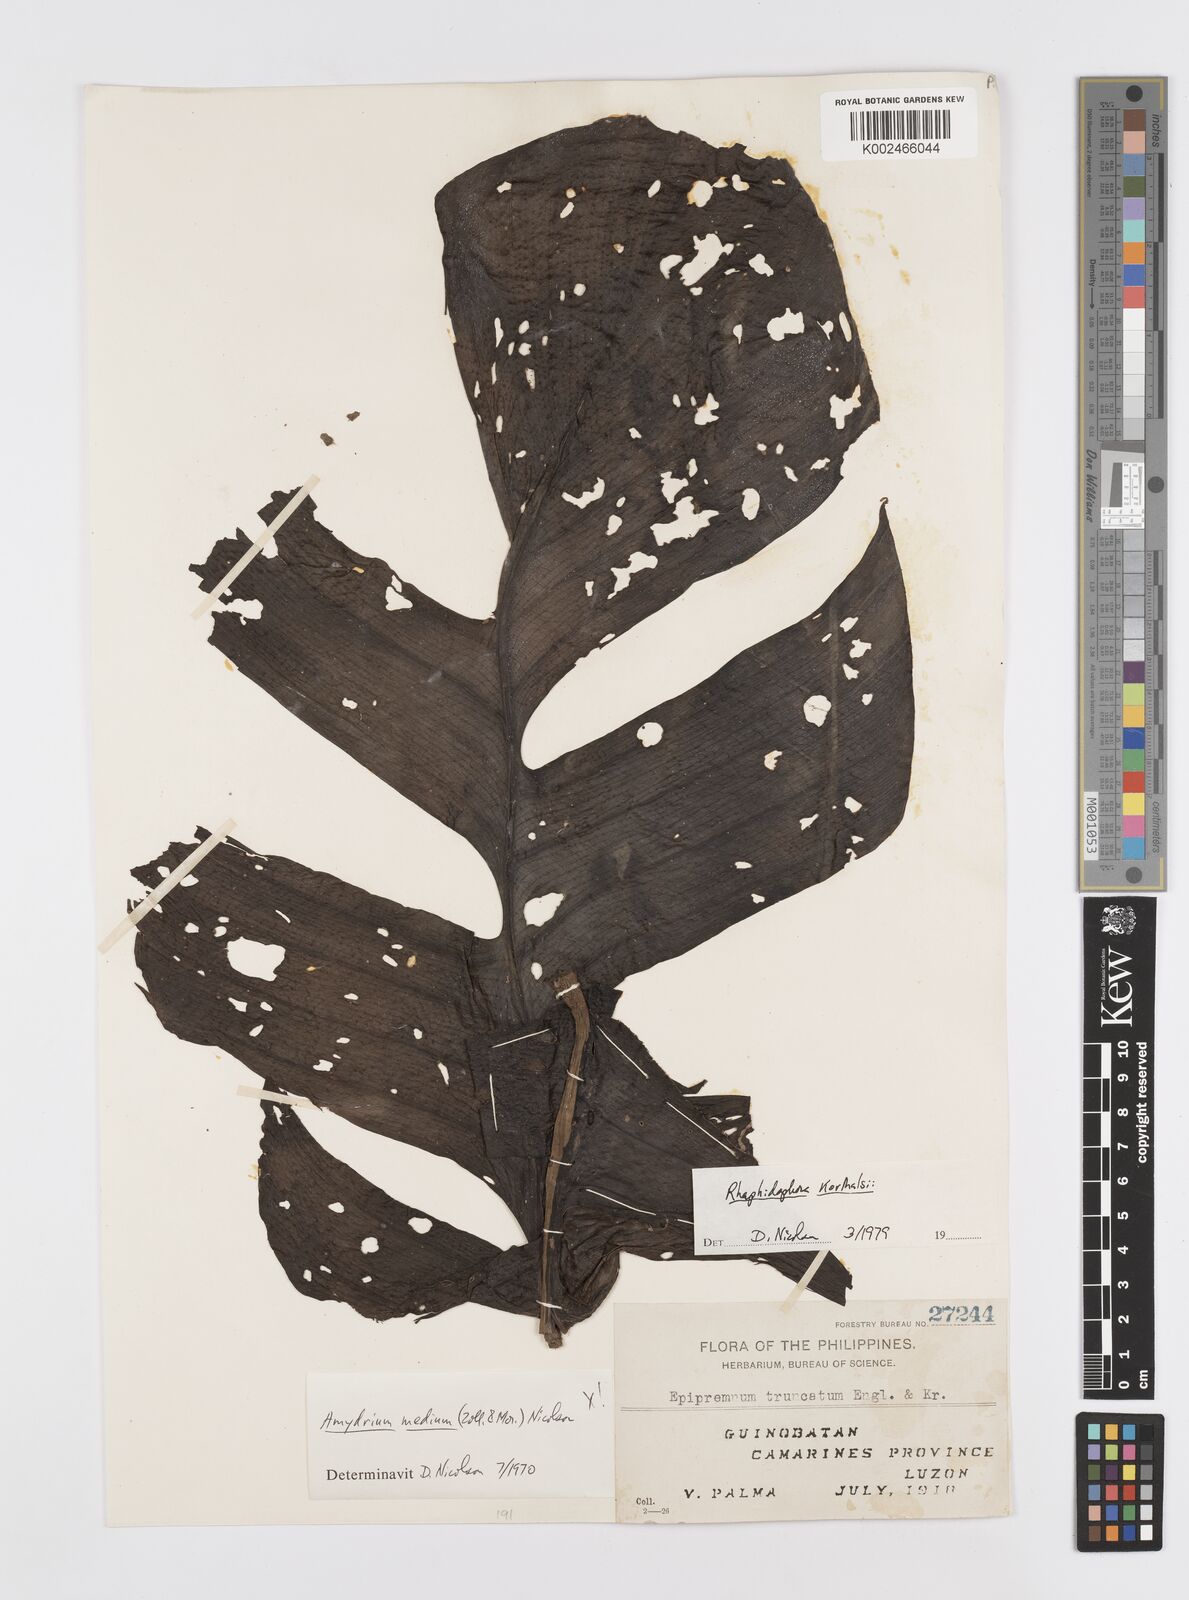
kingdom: Plantae
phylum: Tracheophyta
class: Liliopsida
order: Alismatales
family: Araceae
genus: Rhaphidophora
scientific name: Rhaphidophora korthalsii
